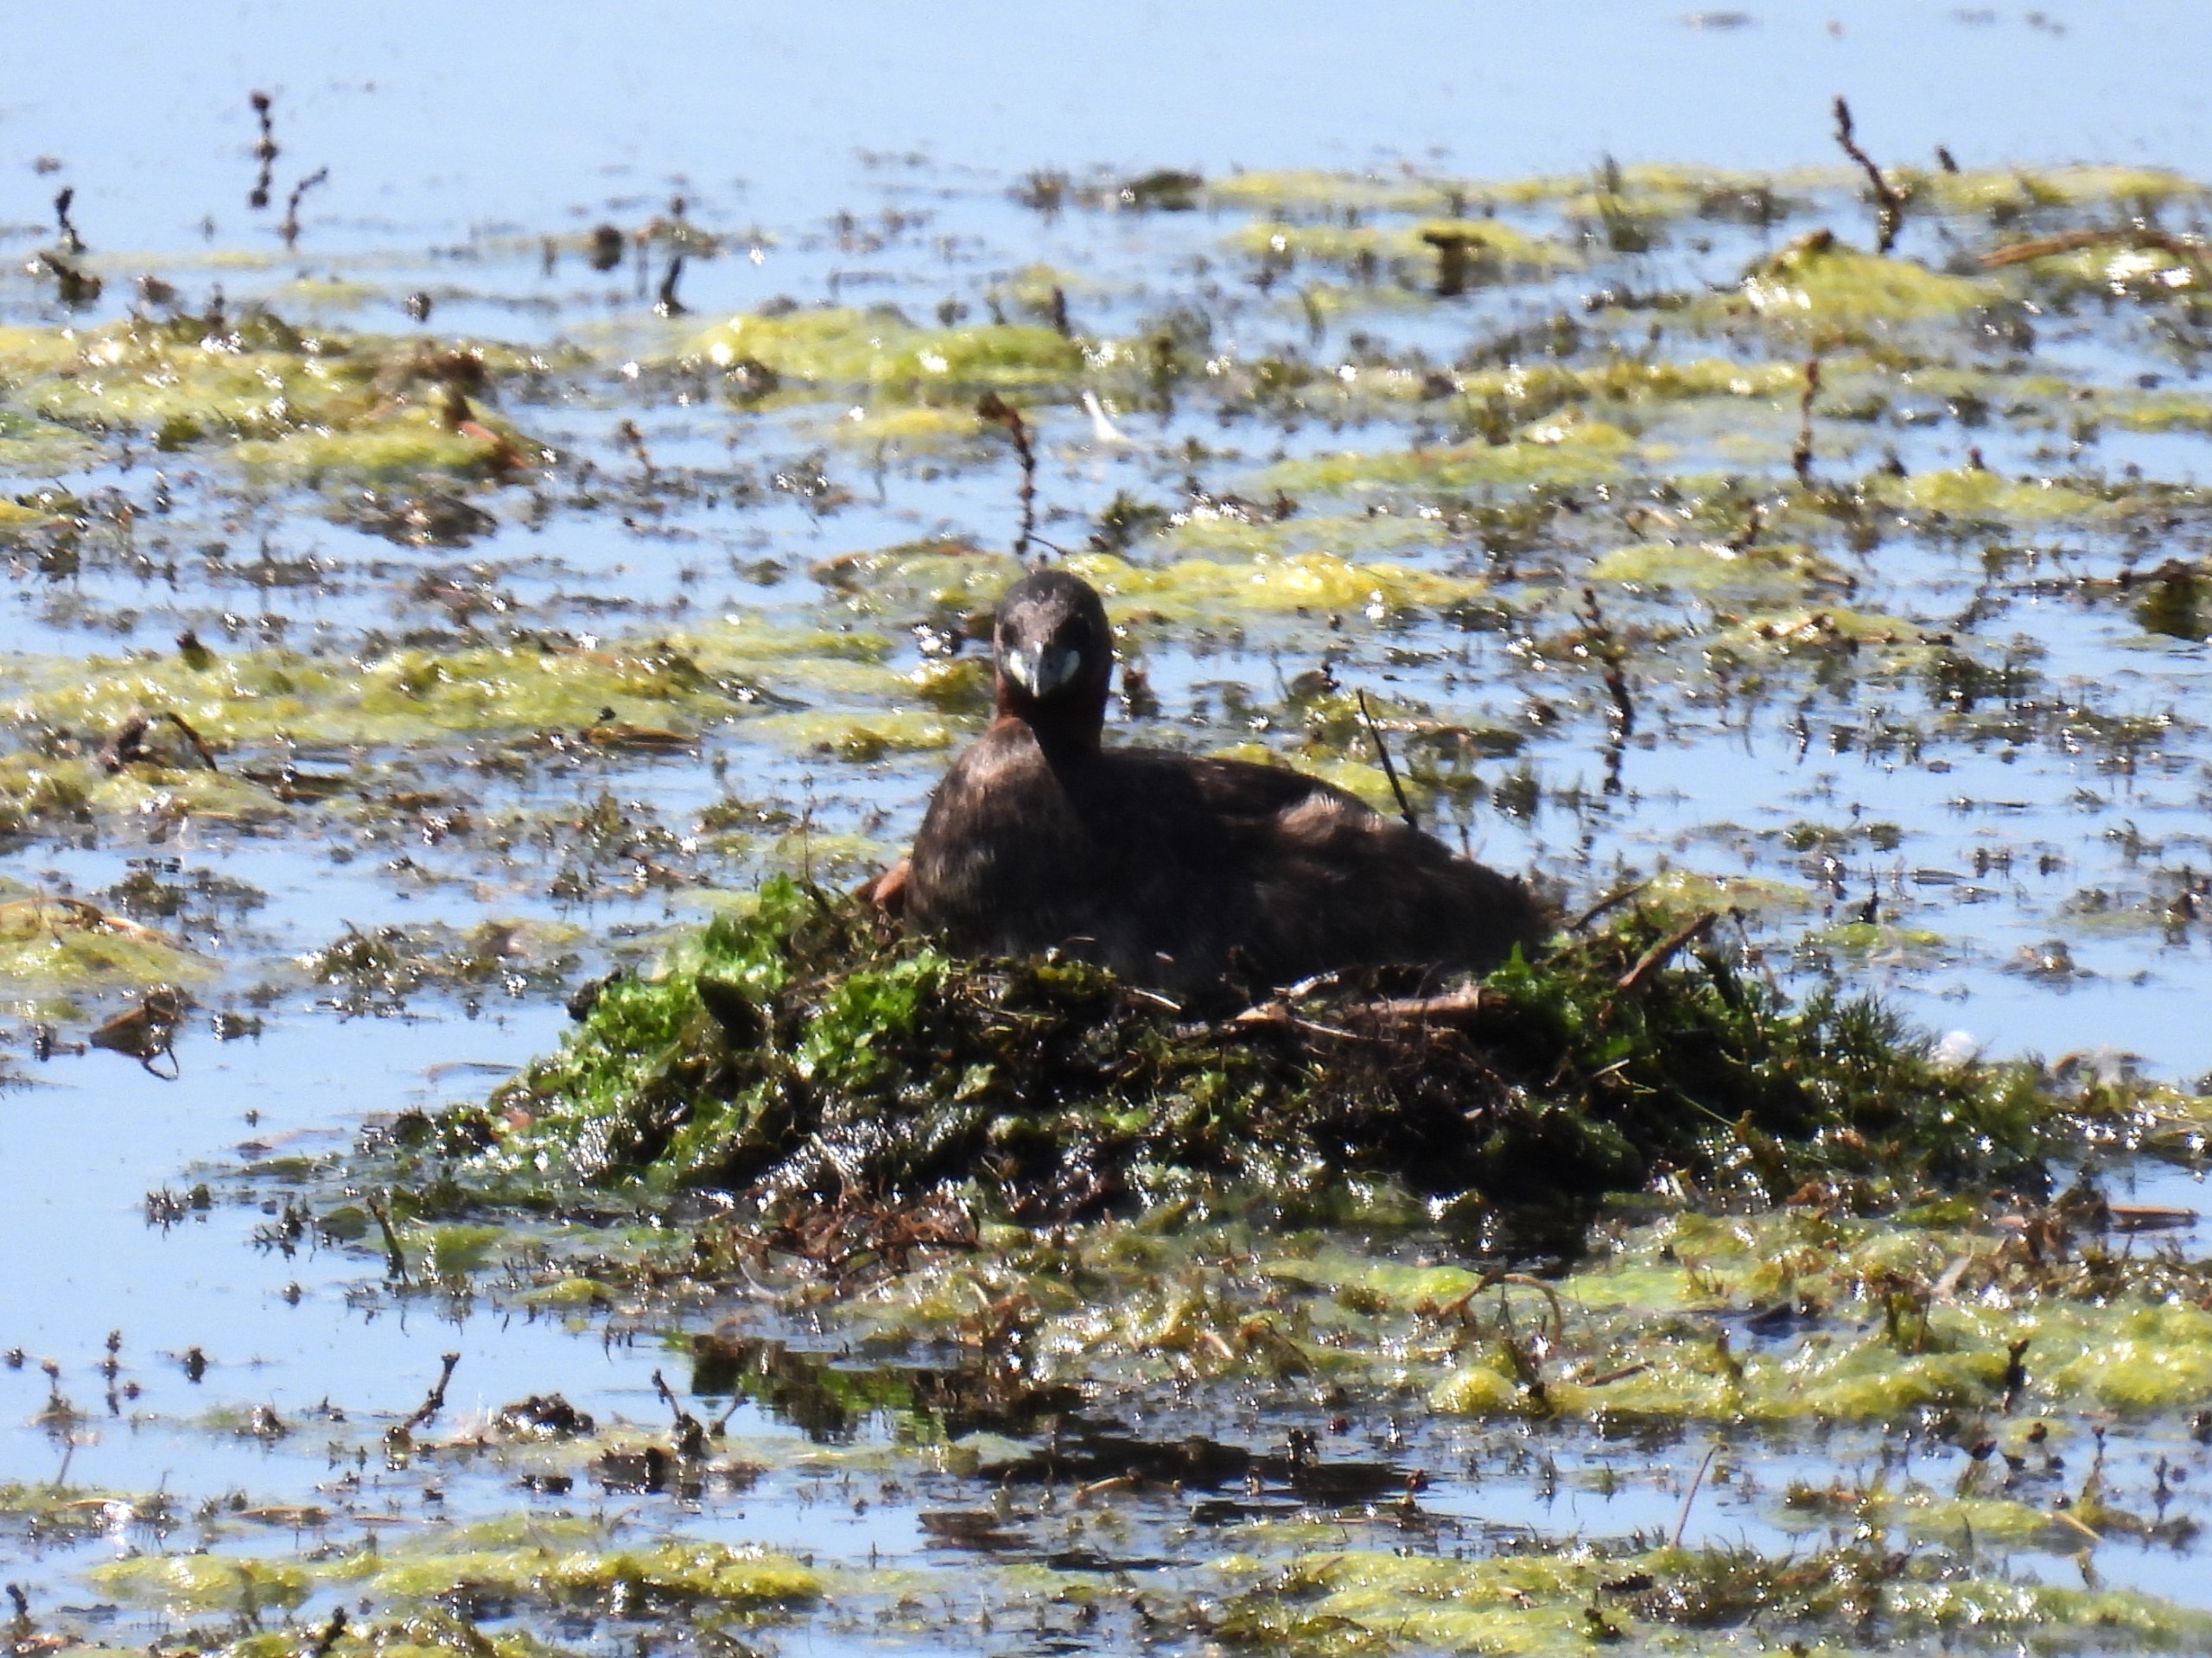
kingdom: Animalia
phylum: Chordata
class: Aves
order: Podicipediformes
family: Podicipedidae
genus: Tachybaptus
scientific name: Tachybaptus ruficollis
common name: Lille lappedykker
